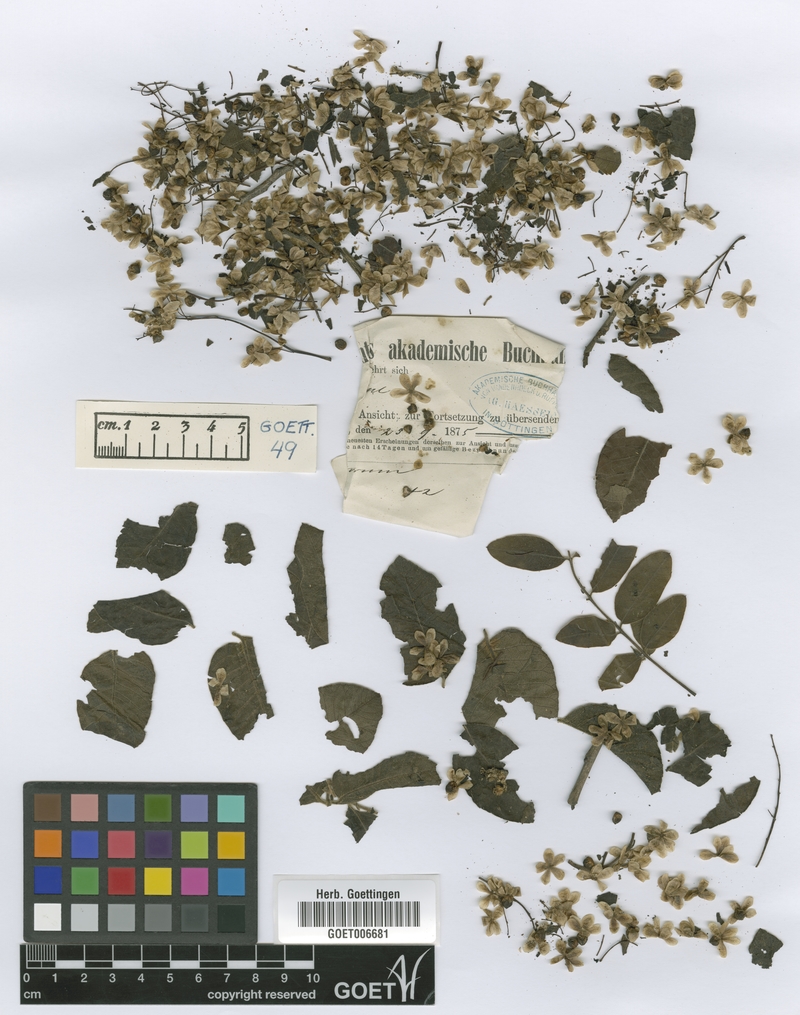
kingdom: Plantae
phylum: Tracheophyta
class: Magnoliopsida
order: Sapindales
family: Anacardiaceae
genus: Myracrodruon
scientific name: Myracrodruon urundeuva
